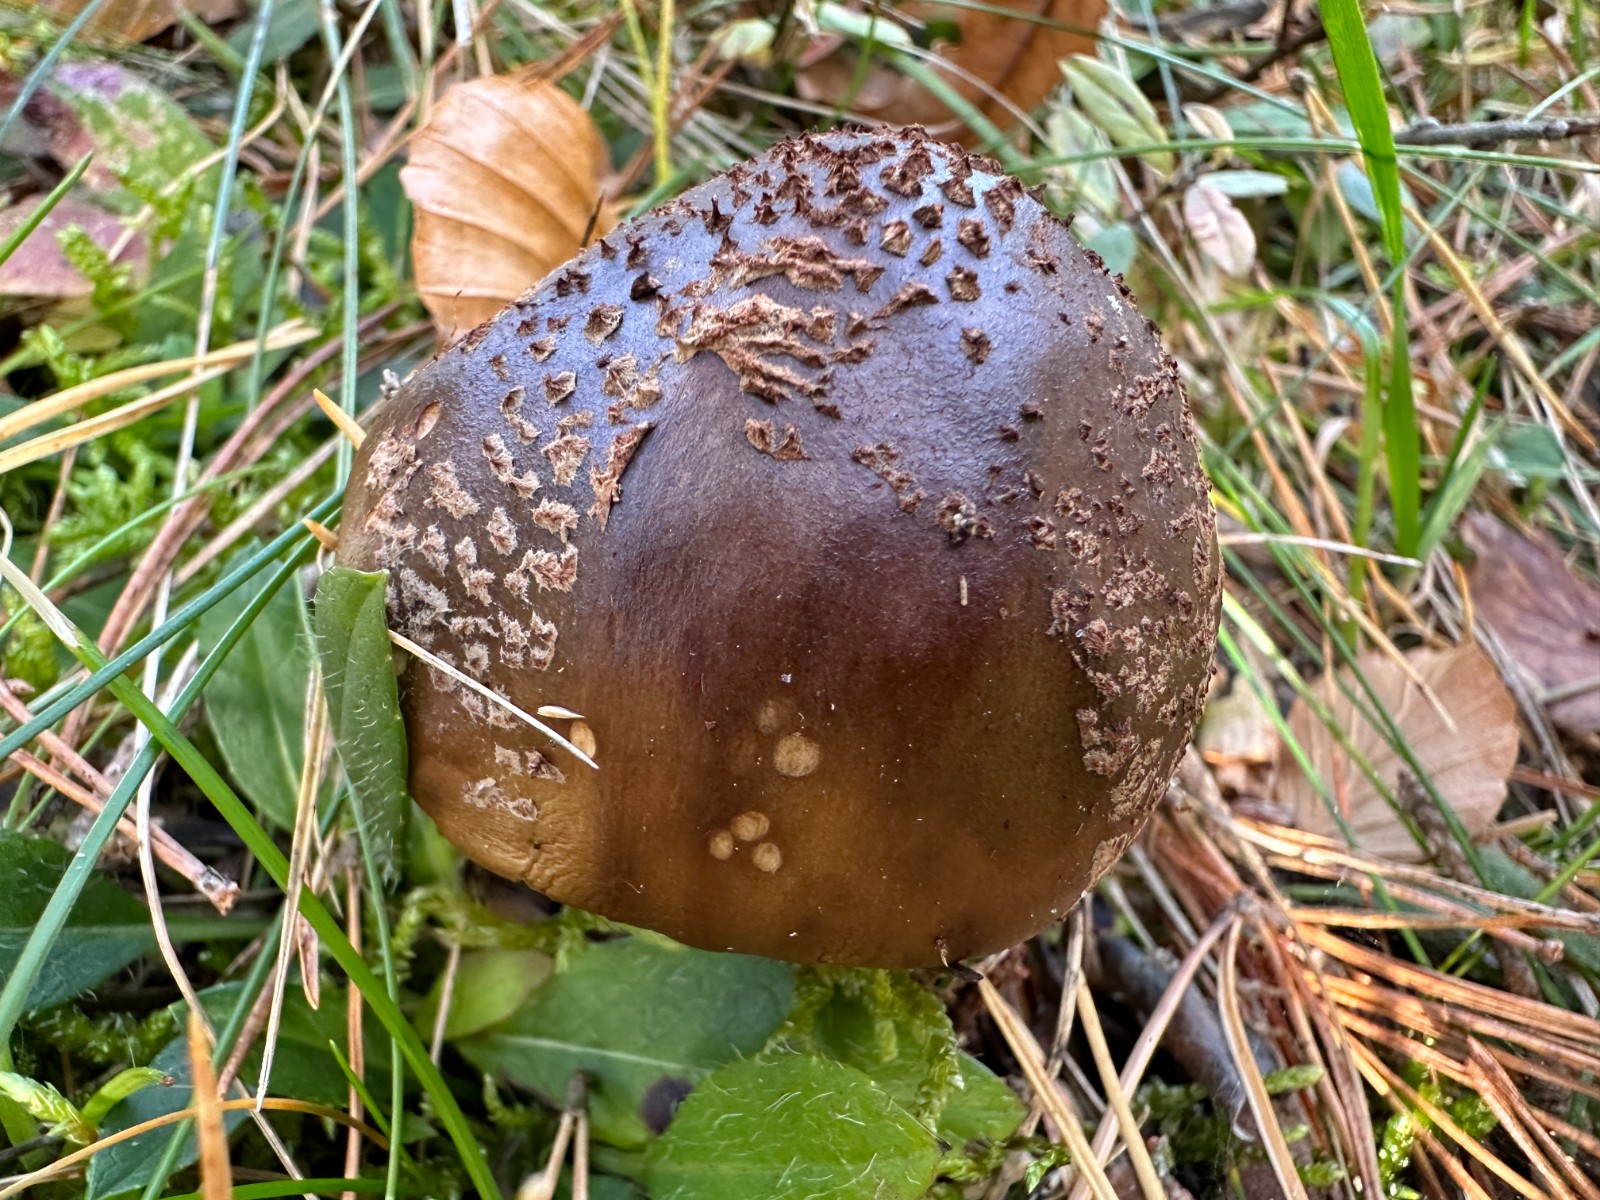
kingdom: Fungi
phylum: Basidiomycota
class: Agaricomycetes
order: Agaricales
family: Amanitaceae
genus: Amanita
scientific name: Amanita rubescens
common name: rødmende fluesvamp
